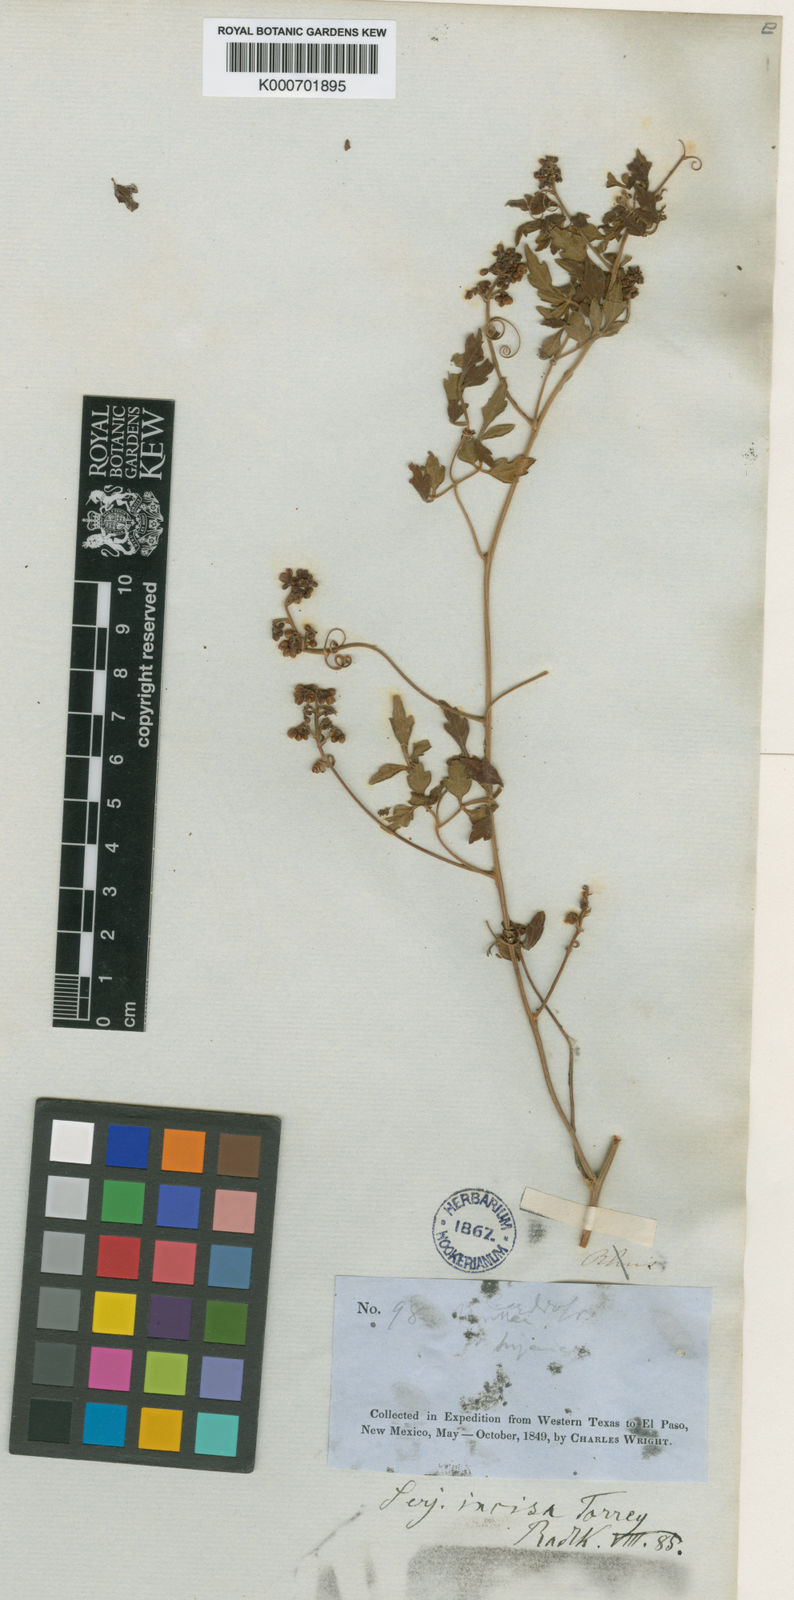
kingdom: Plantae
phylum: Tracheophyta
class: Magnoliopsida
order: Sapindales
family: Sapindaceae
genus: Serjania
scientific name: Serjania incisa
